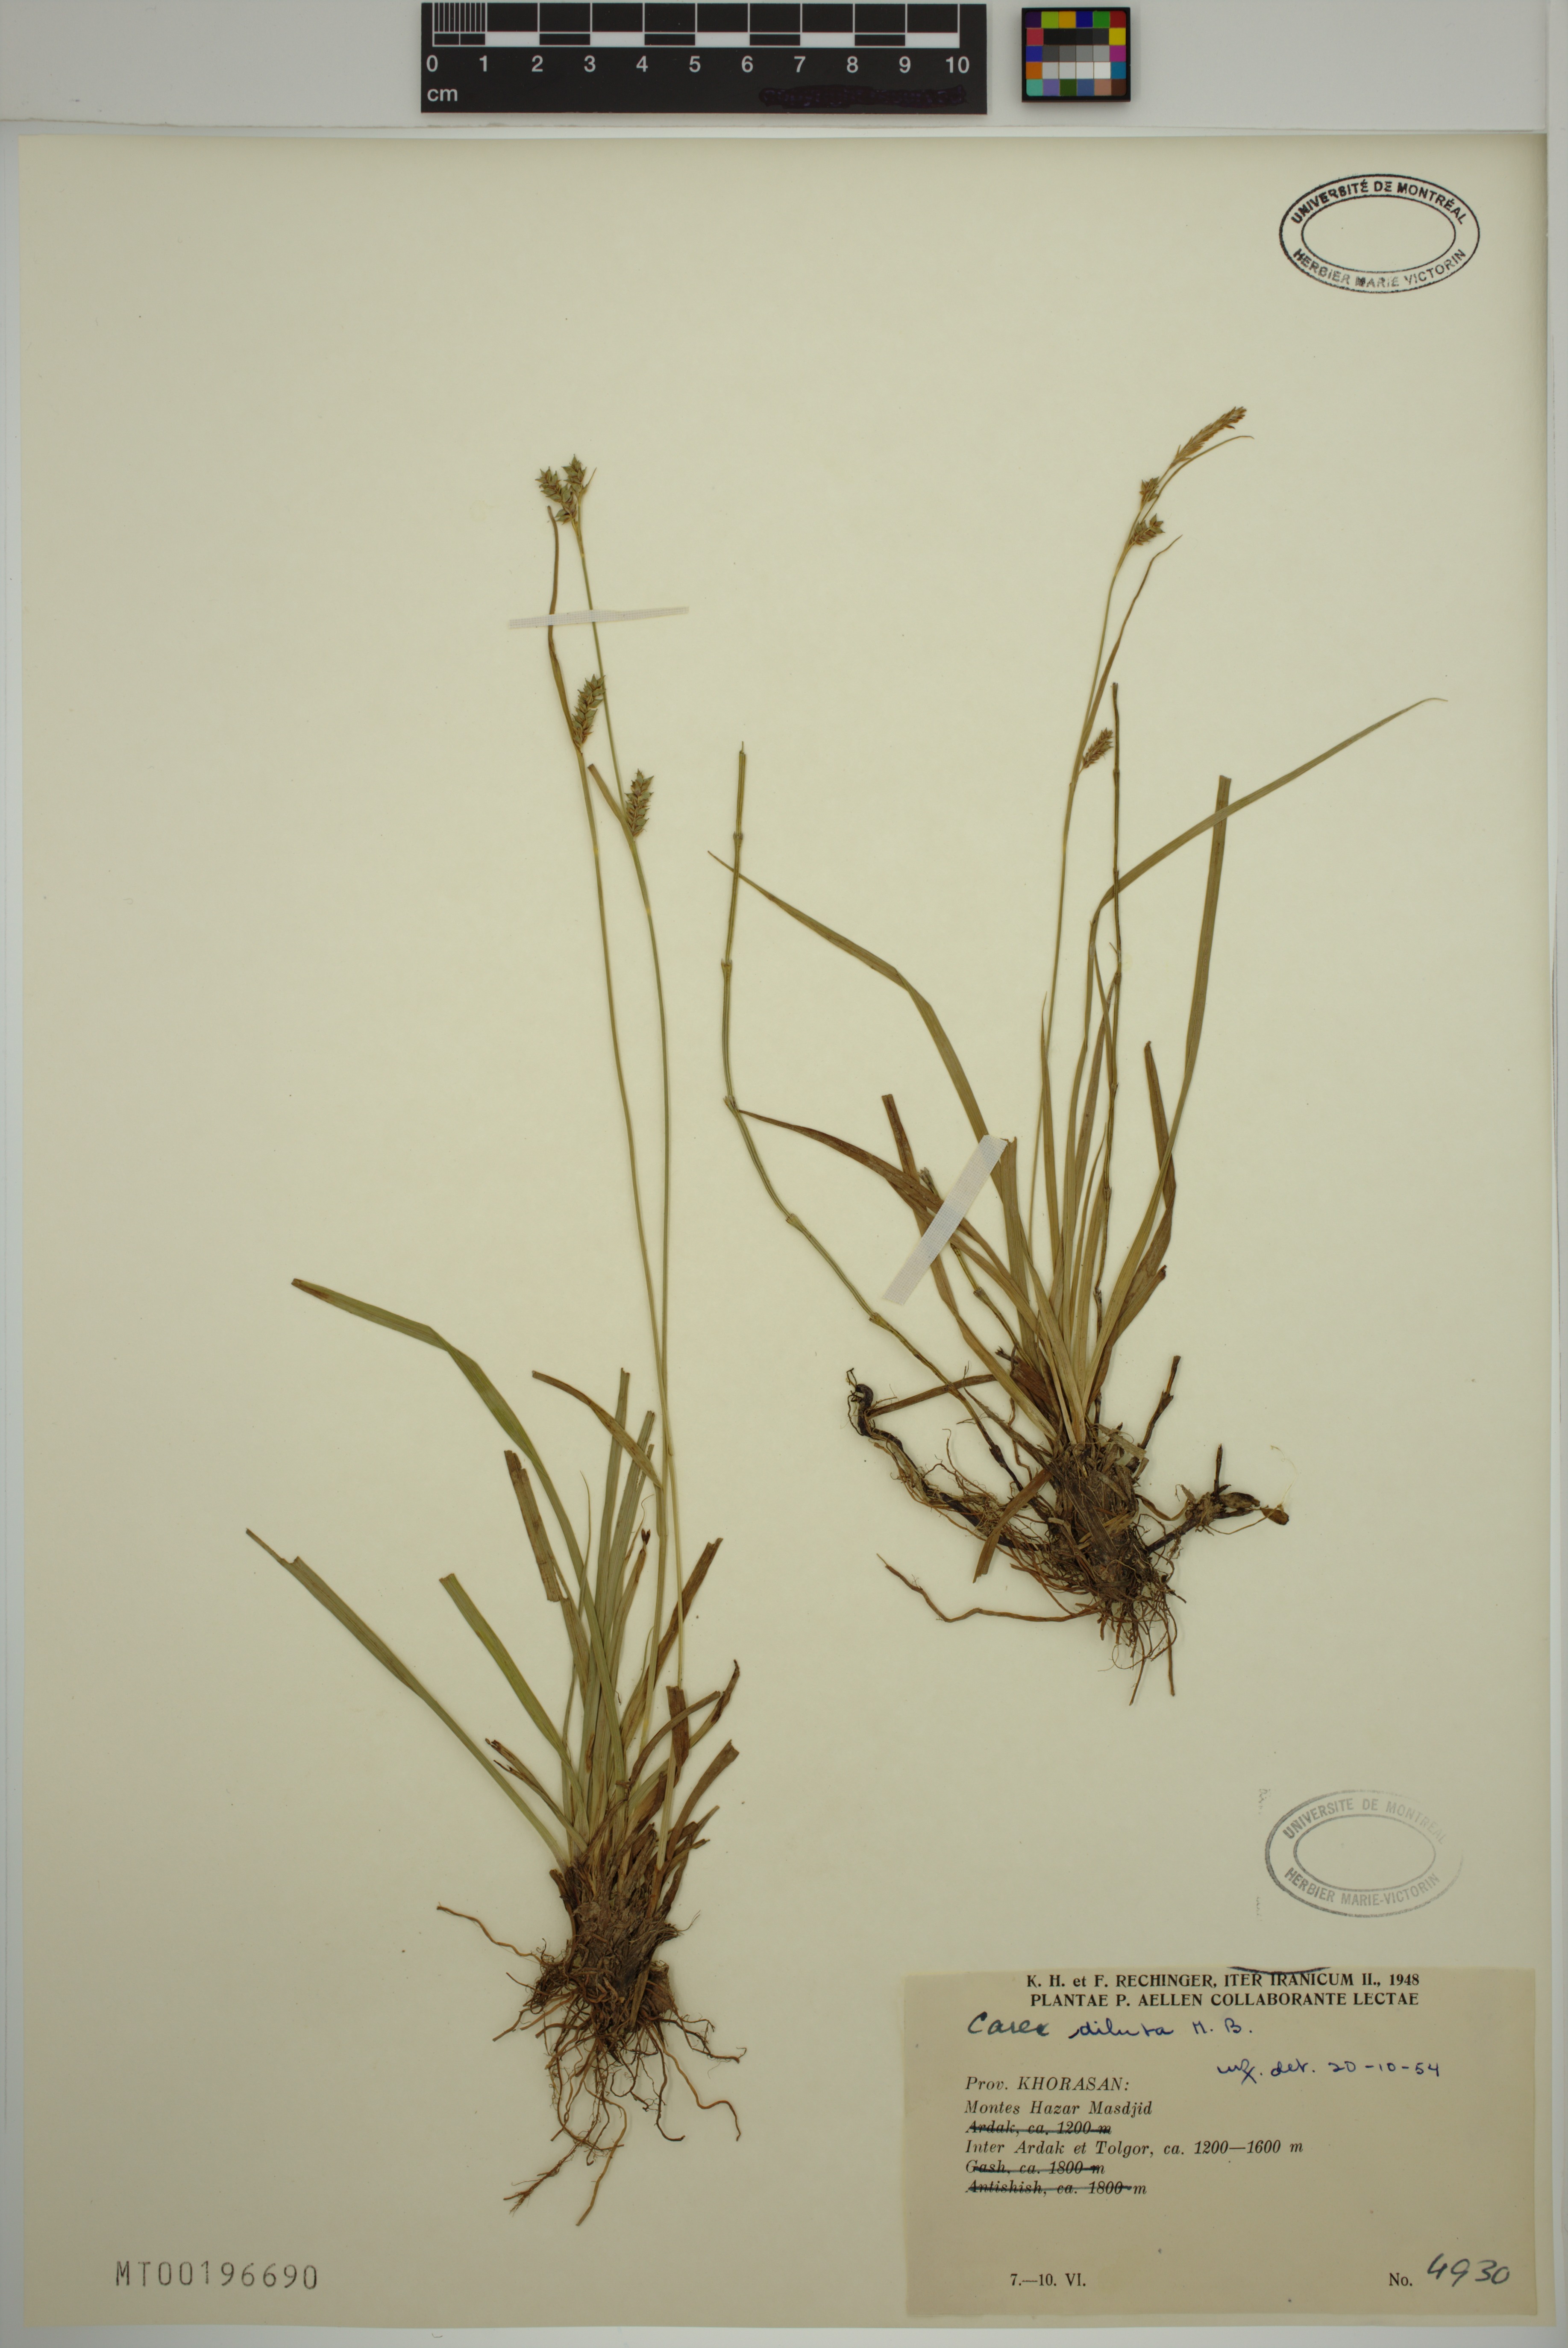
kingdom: Plantae
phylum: Tracheophyta
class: Liliopsida
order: Poales
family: Cyperaceae
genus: Carex
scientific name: Carex diluta
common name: Sedge
